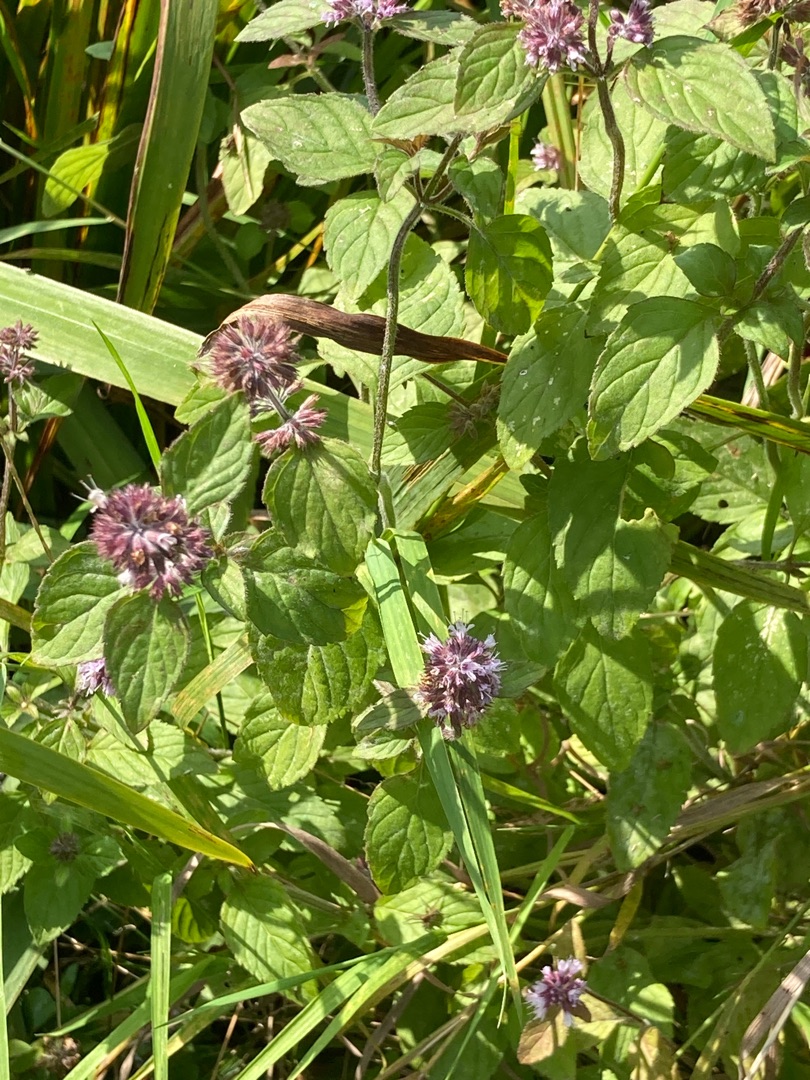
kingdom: Plantae
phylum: Tracheophyta
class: Magnoliopsida
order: Lamiales
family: Lamiaceae
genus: Mentha
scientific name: Mentha aquatica
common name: Vand-mynte
